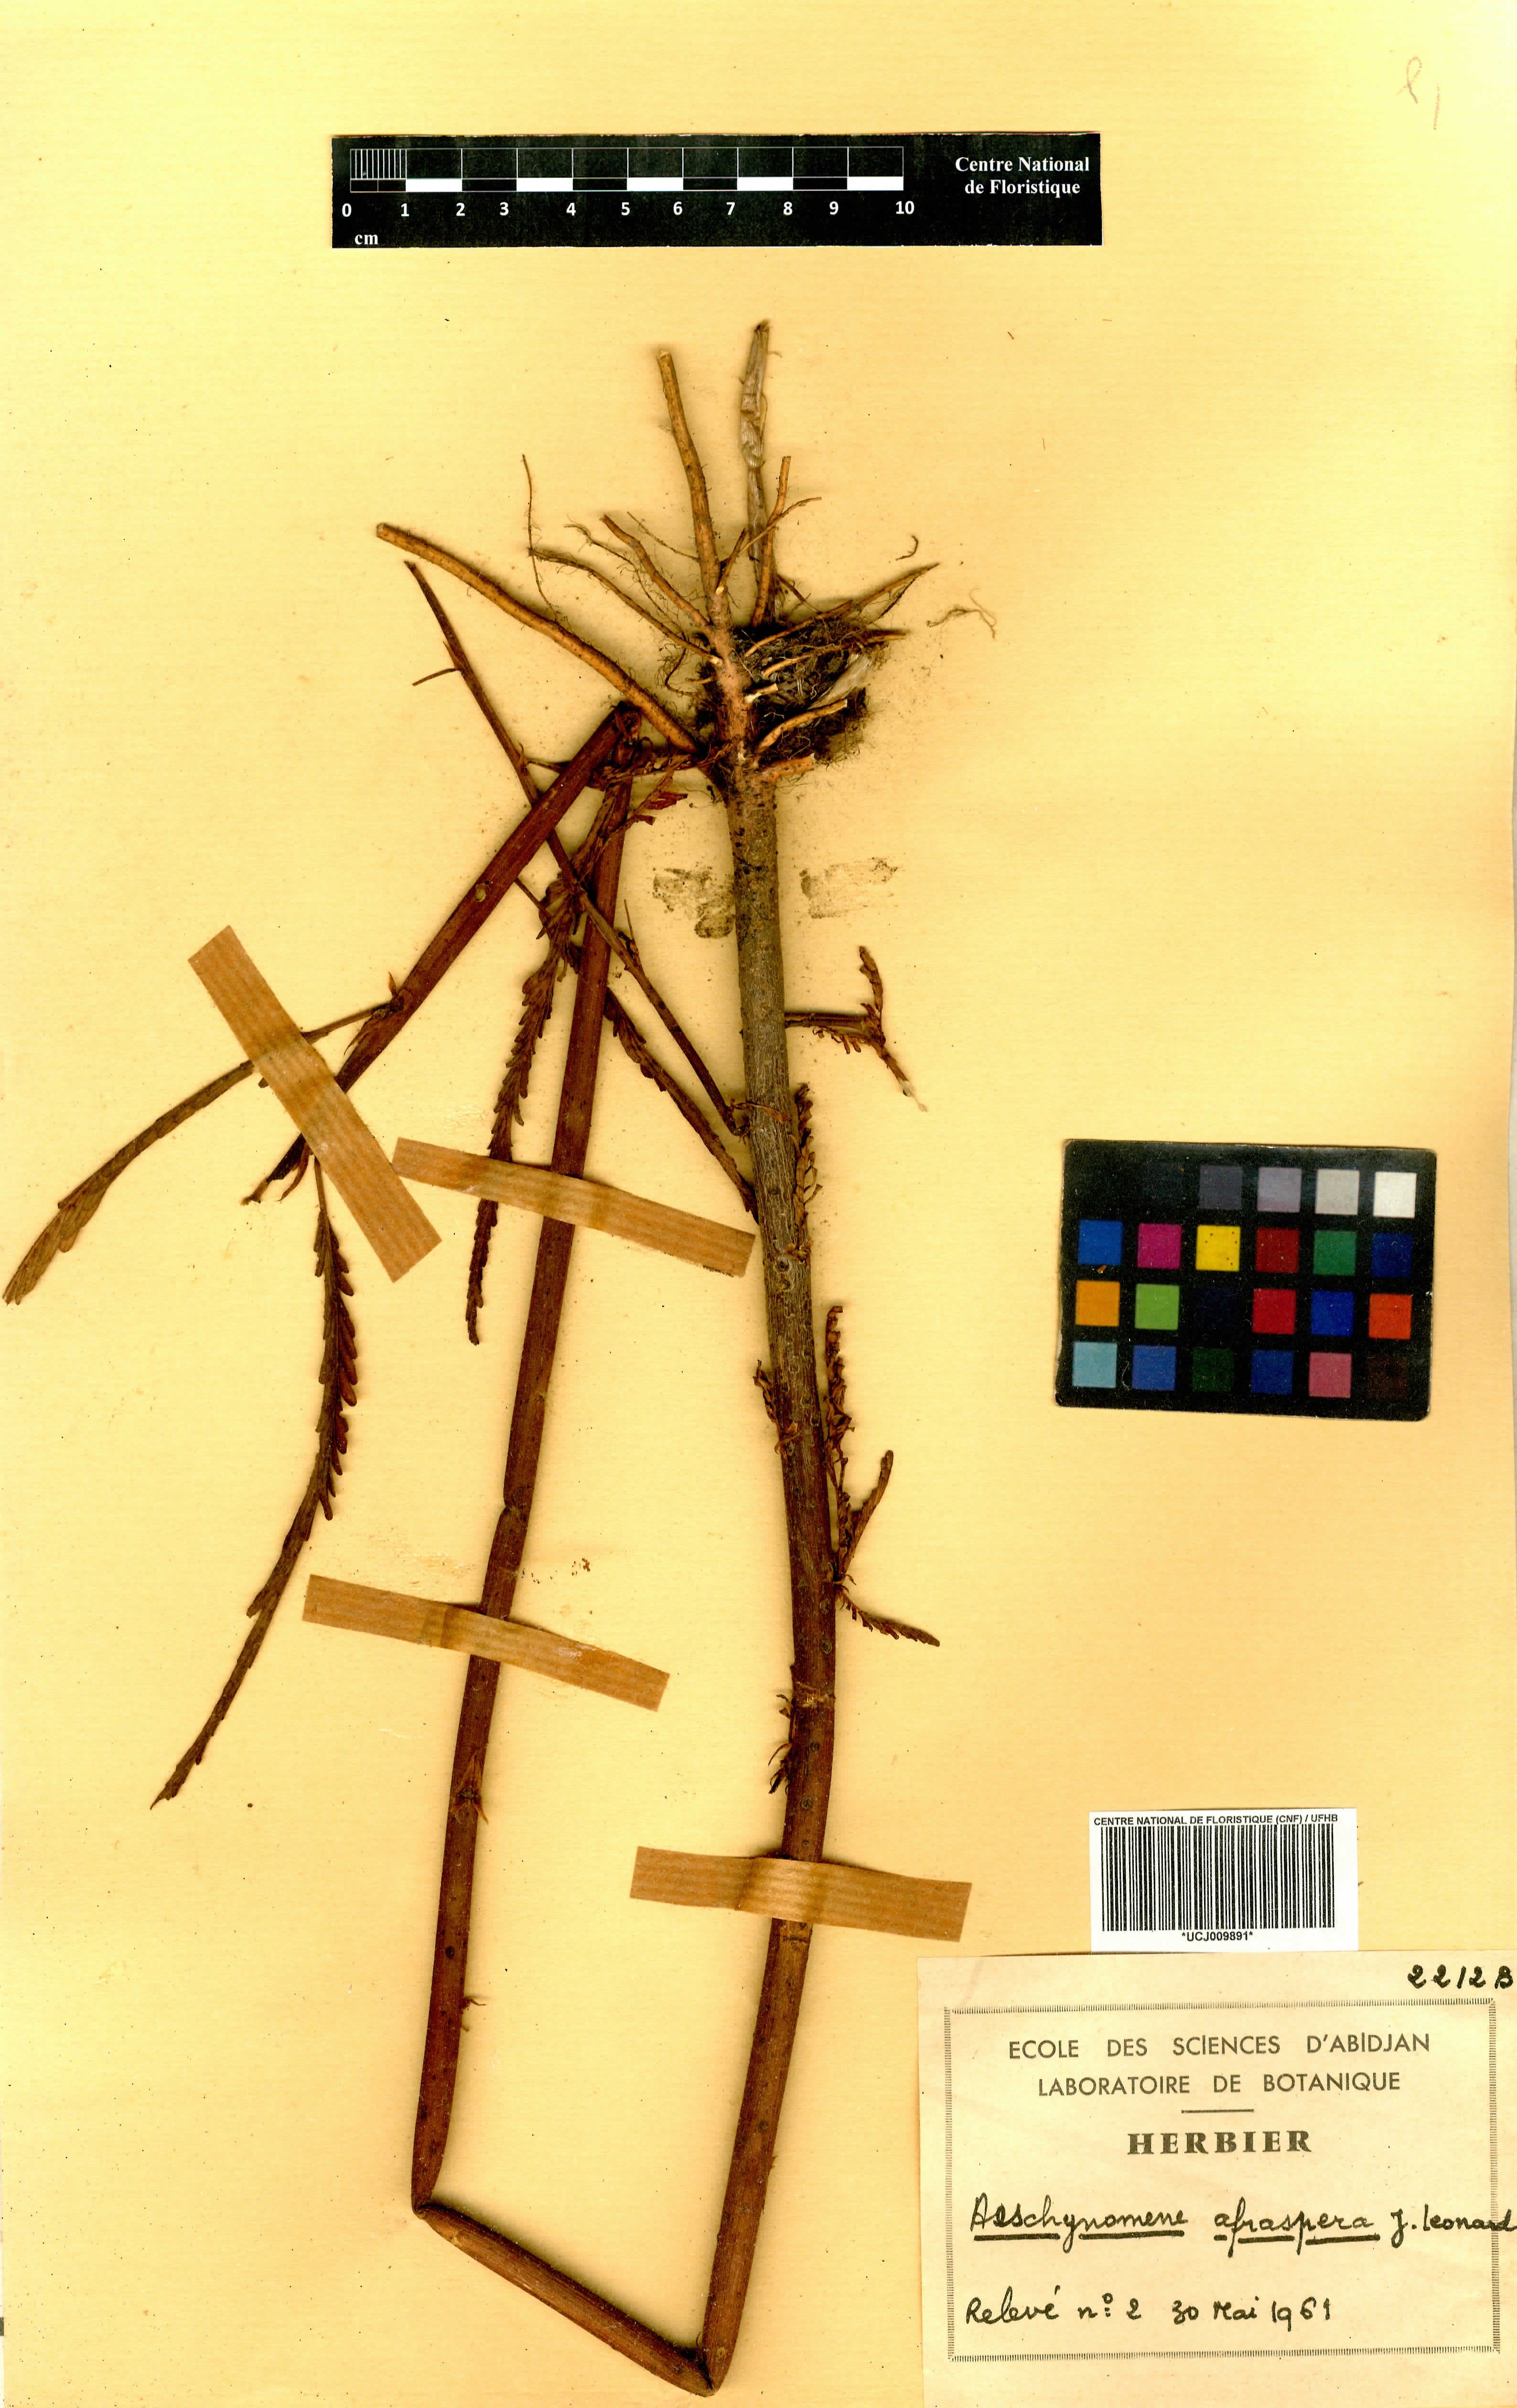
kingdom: Plantae
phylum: Tracheophyta
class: Magnoliopsida
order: Fabales
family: Fabaceae
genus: Aeschynomene
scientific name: Aeschynomene afraspera
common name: Sola pith
